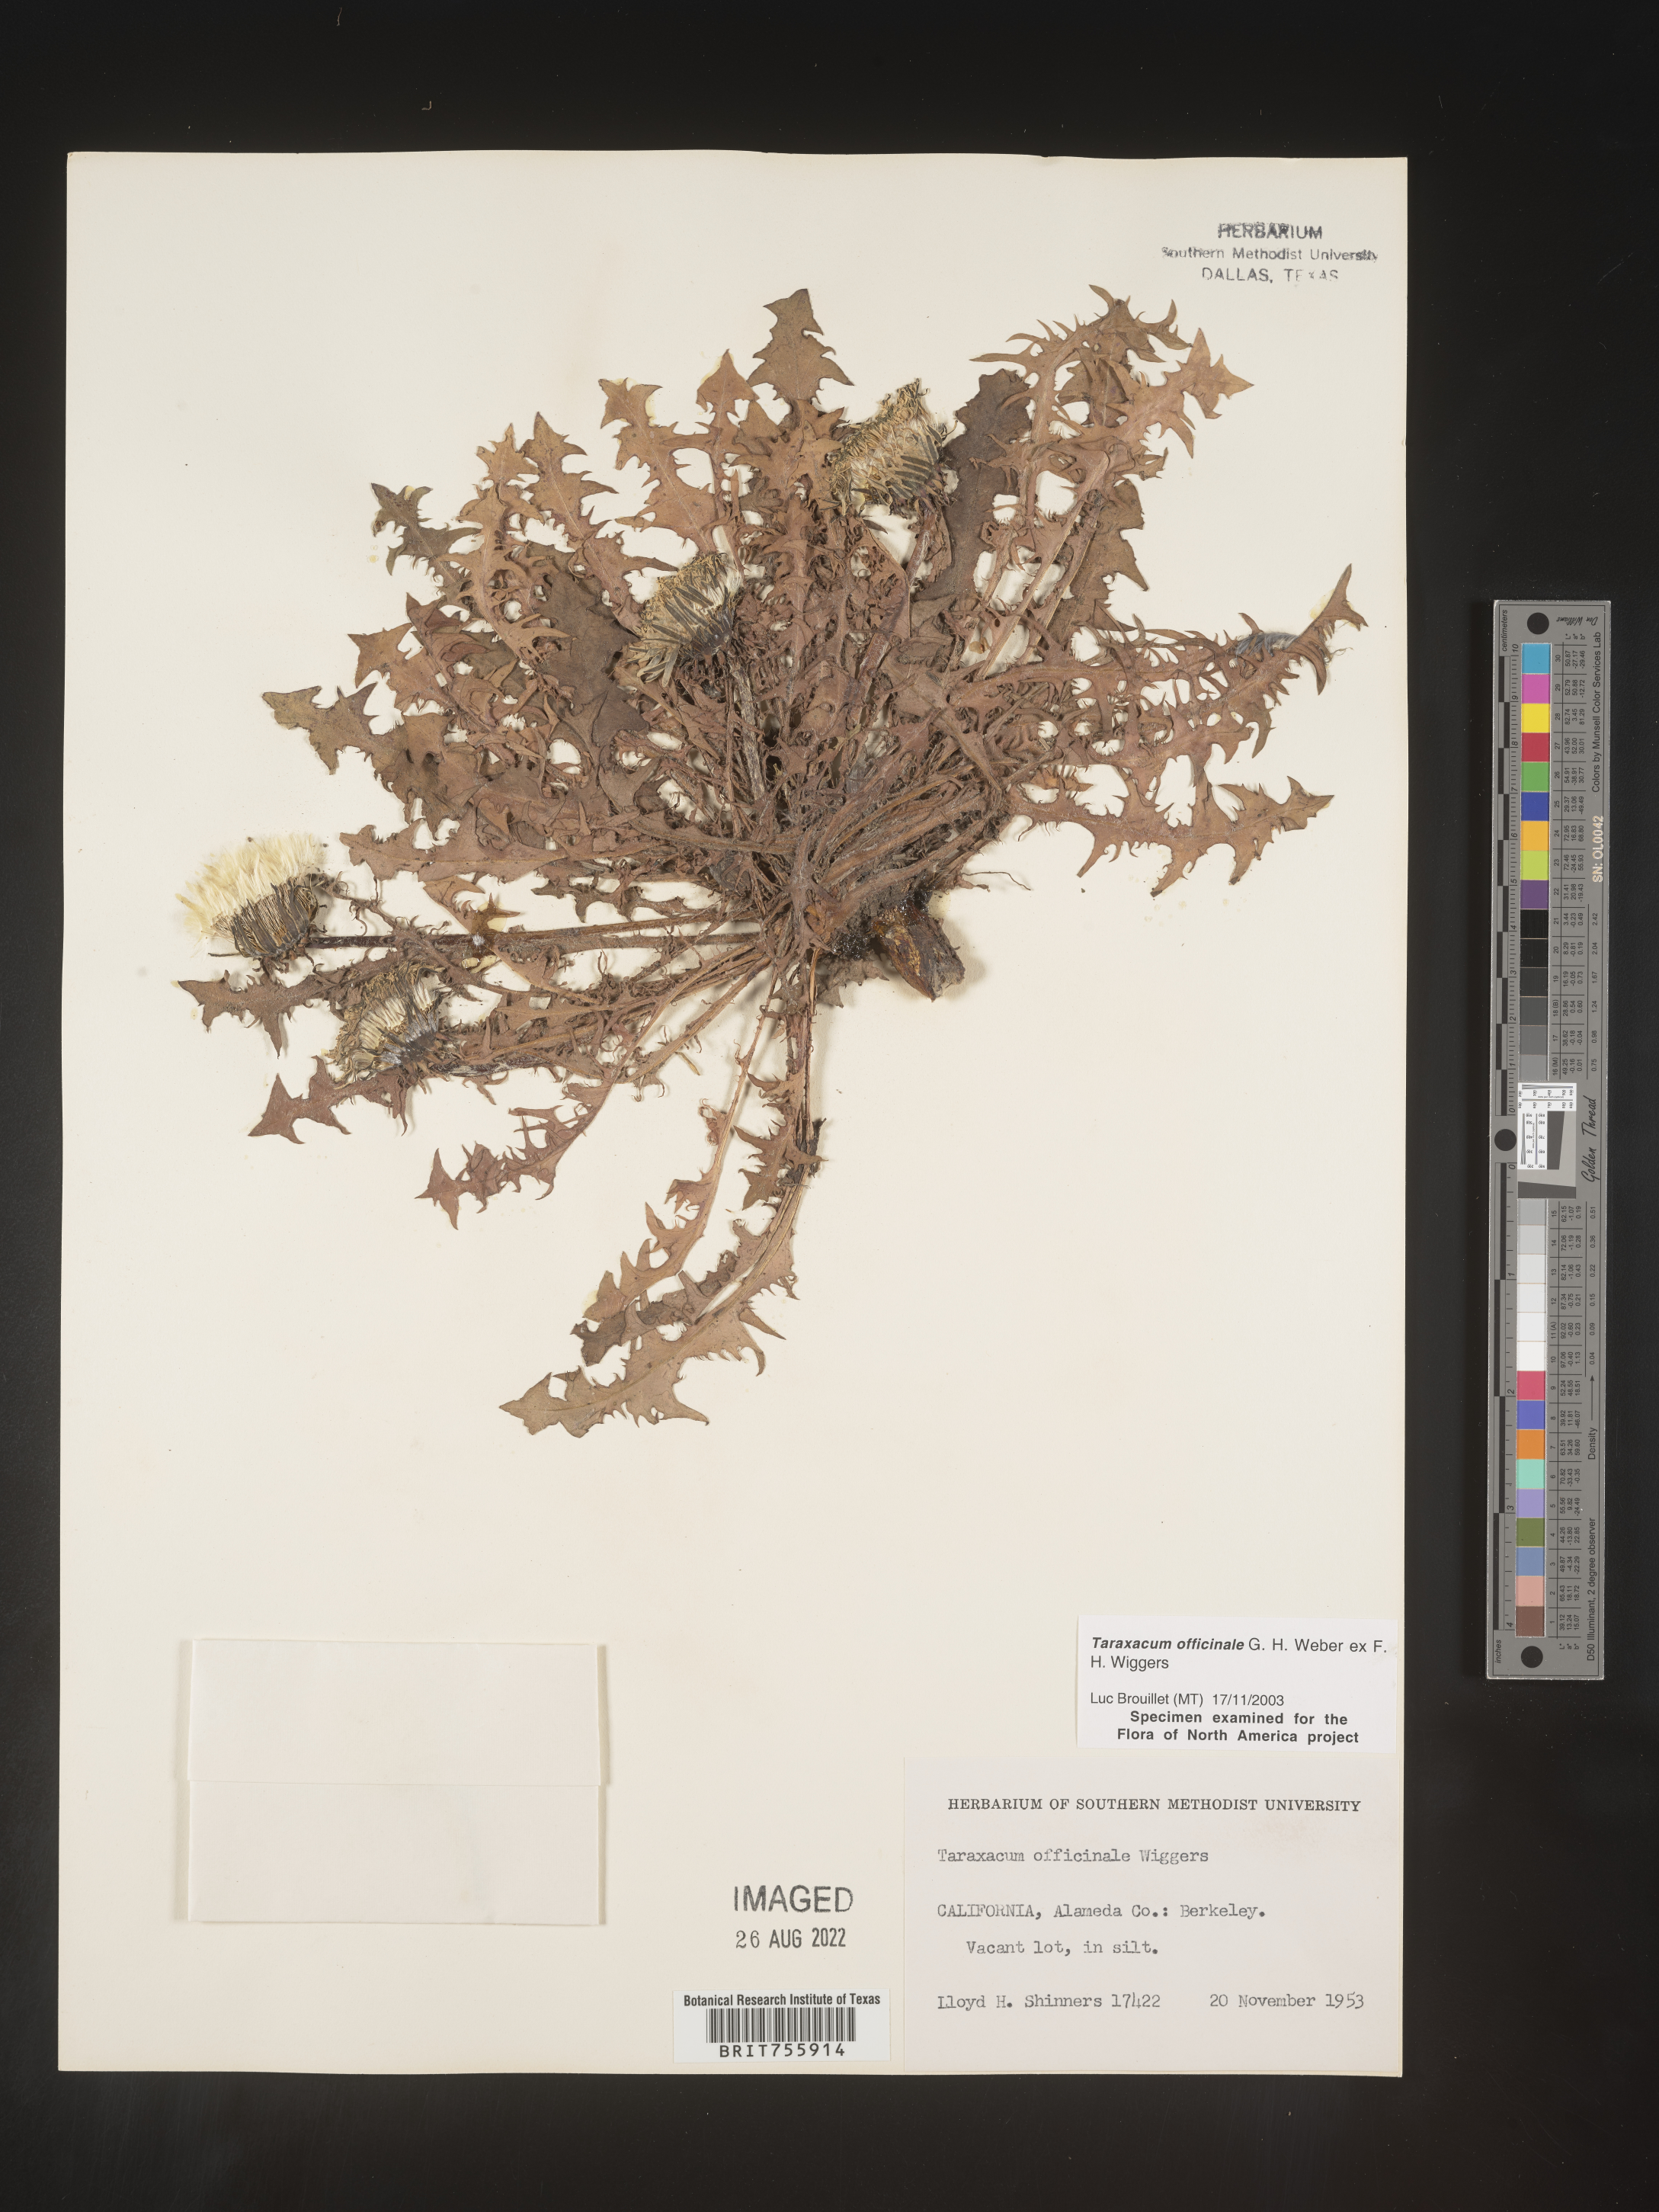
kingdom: Plantae
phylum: Tracheophyta
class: Magnoliopsida
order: Asterales
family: Asteraceae
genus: Taraxacum
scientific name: Taraxacum officinale
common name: Common dandelion
